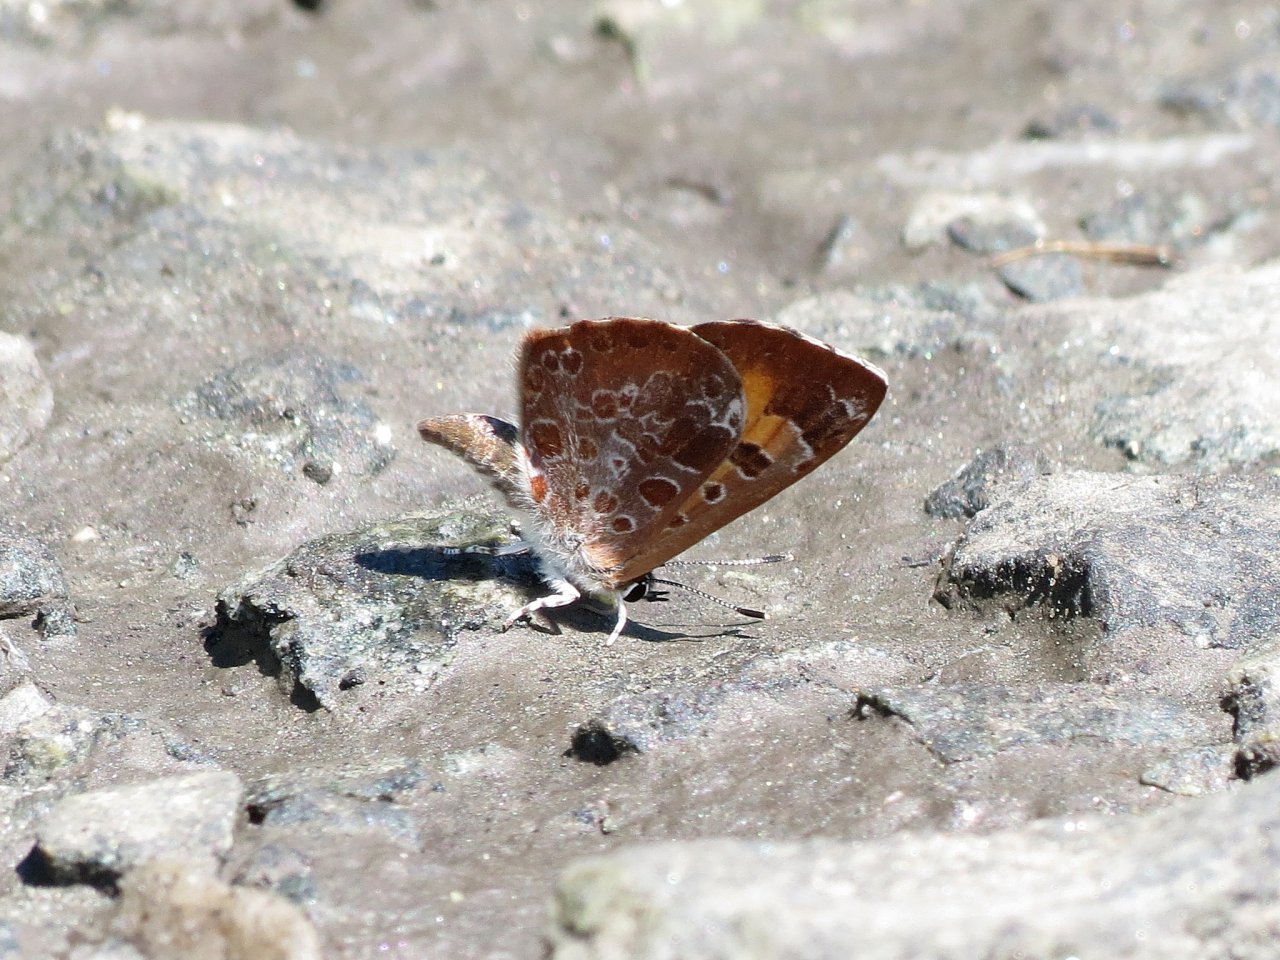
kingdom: Animalia
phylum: Arthropoda
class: Insecta
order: Lepidoptera
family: Lycaenidae
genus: Feniseca
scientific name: Feniseca tarquinius
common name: Harvester
